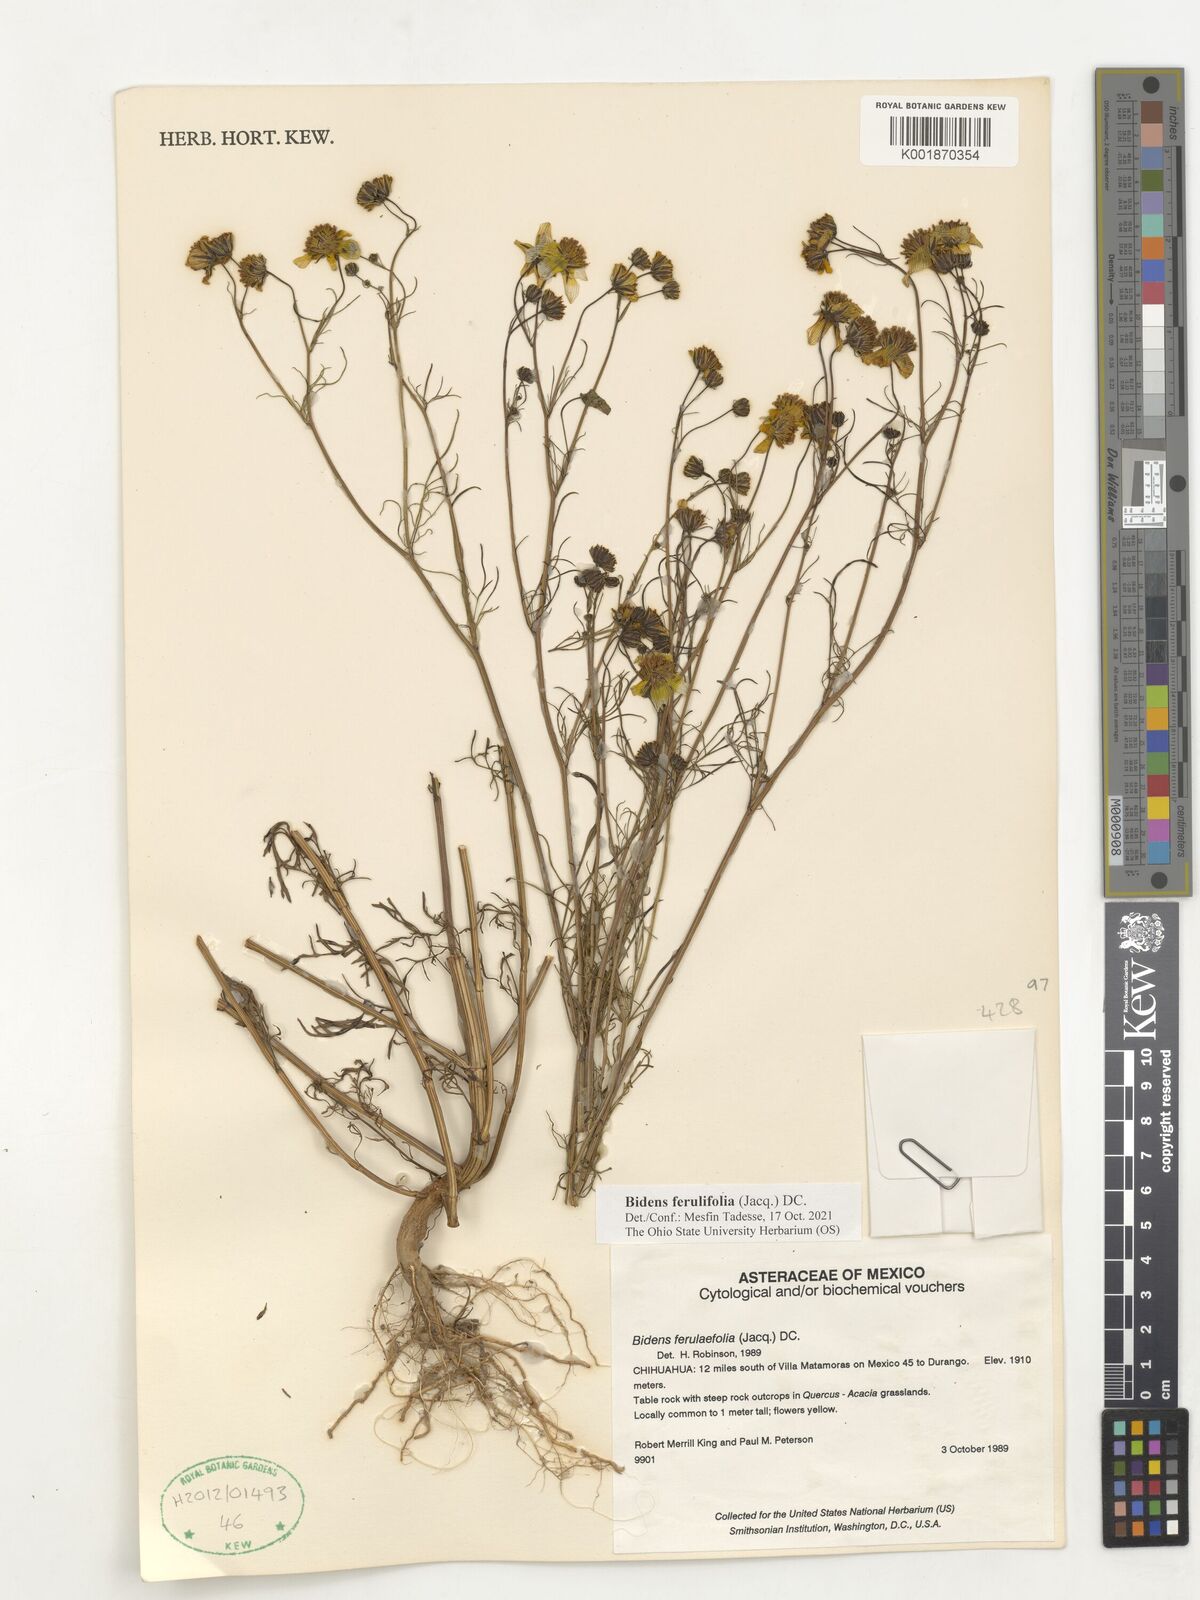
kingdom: Plantae
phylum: Tracheophyta
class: Magnoliopsida
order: Asterales
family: Asteraceae
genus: Bidens
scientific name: Bidens aurea
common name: Arizona beggar-ticks
